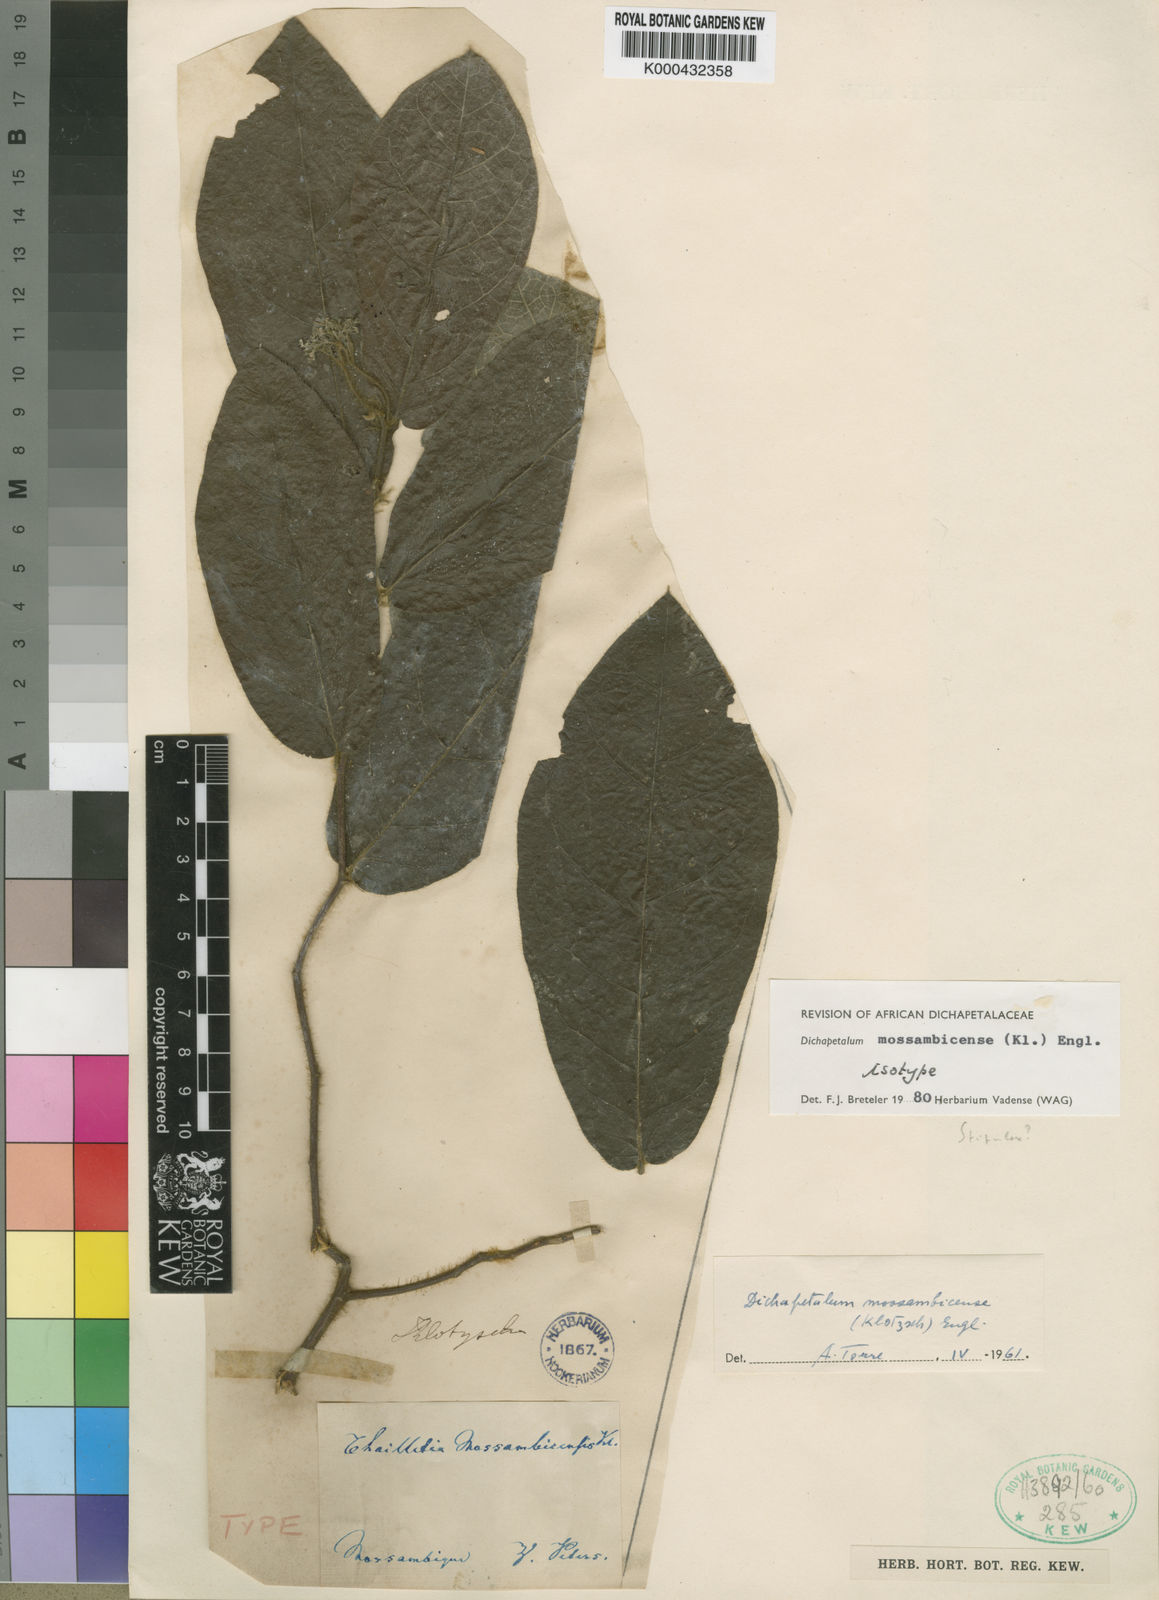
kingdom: Plantae
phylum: Tracheophyta
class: Magnoliopsida
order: Malpighiales
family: Dichapetalaceae
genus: Dichapetalum
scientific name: Dichapetalum mossambicense
